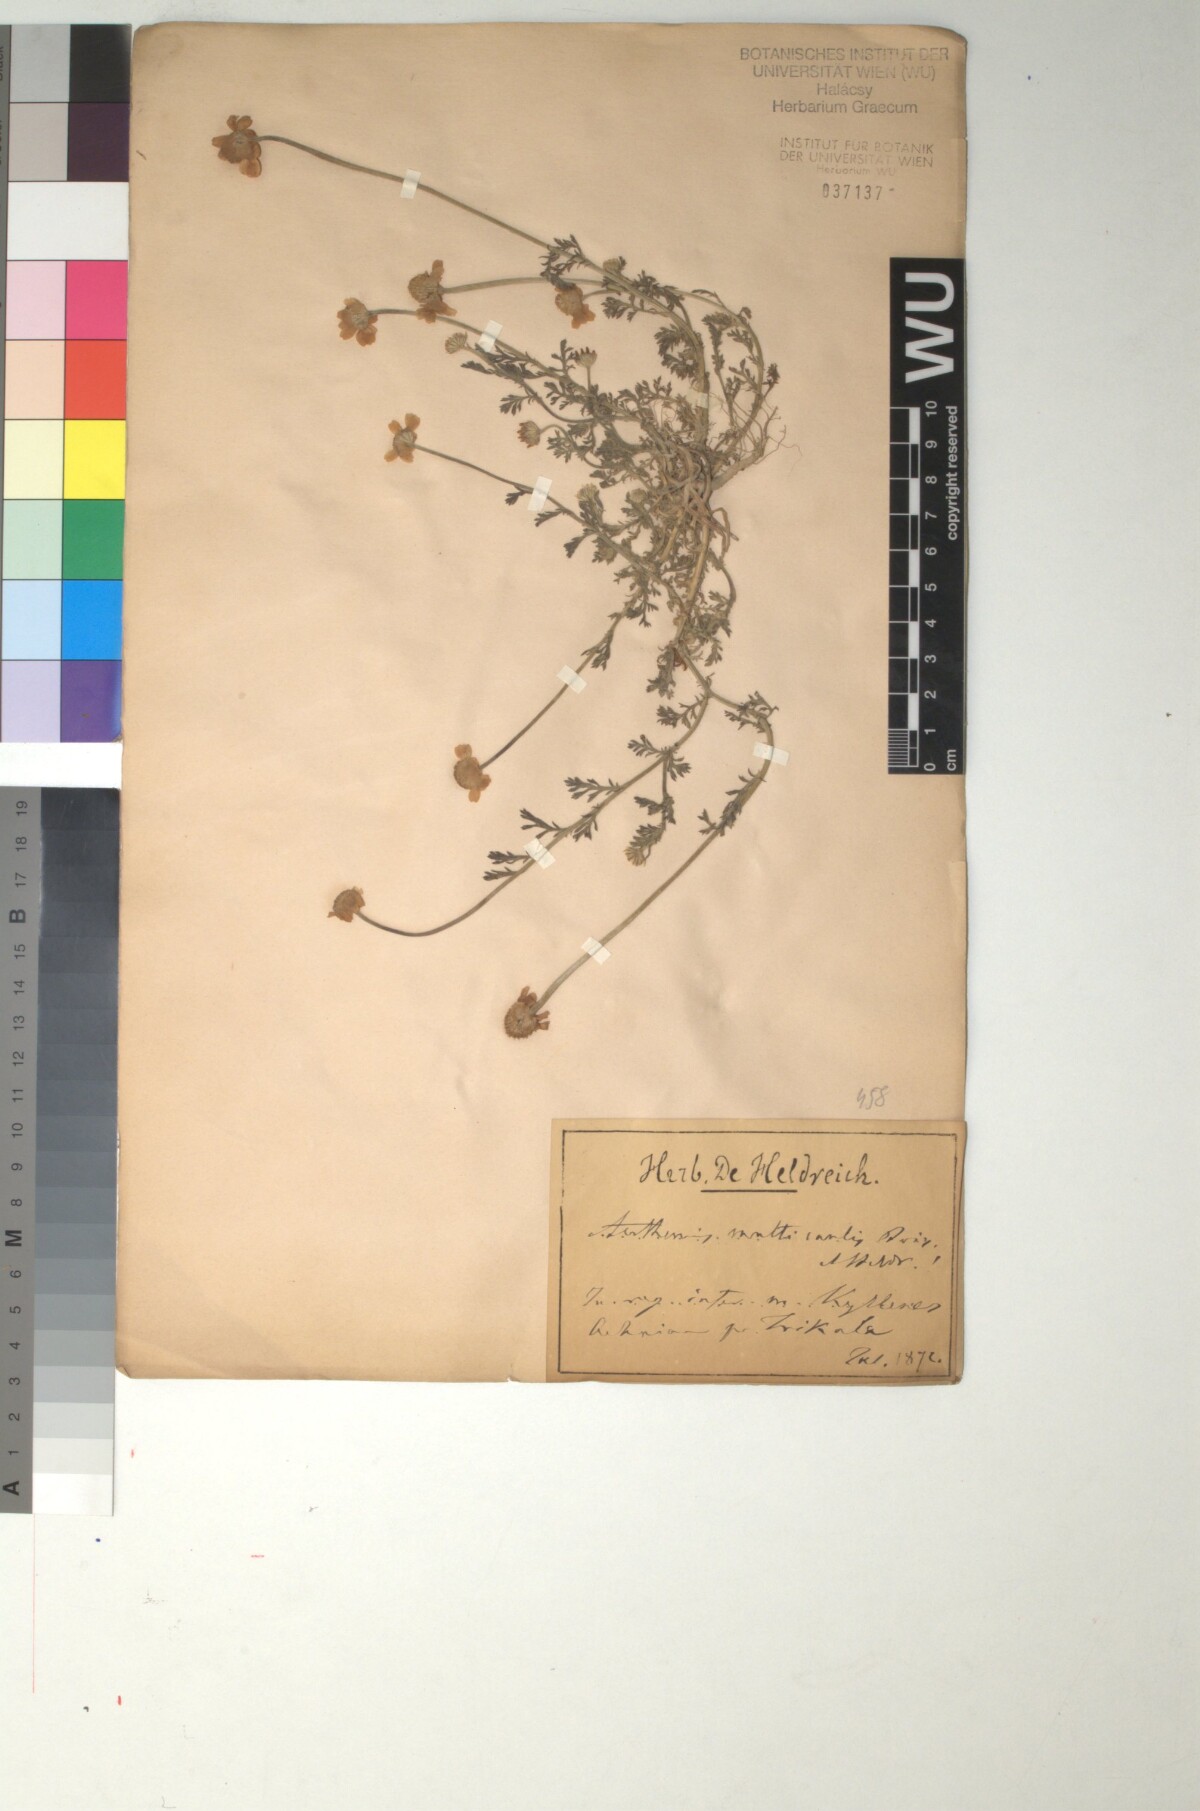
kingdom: Plantae
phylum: Tracheophyta
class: Magnoliopsida
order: Asterales
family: Asteraceae
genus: Anthemis
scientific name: Anthemis arvensis
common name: Corn chamomile
